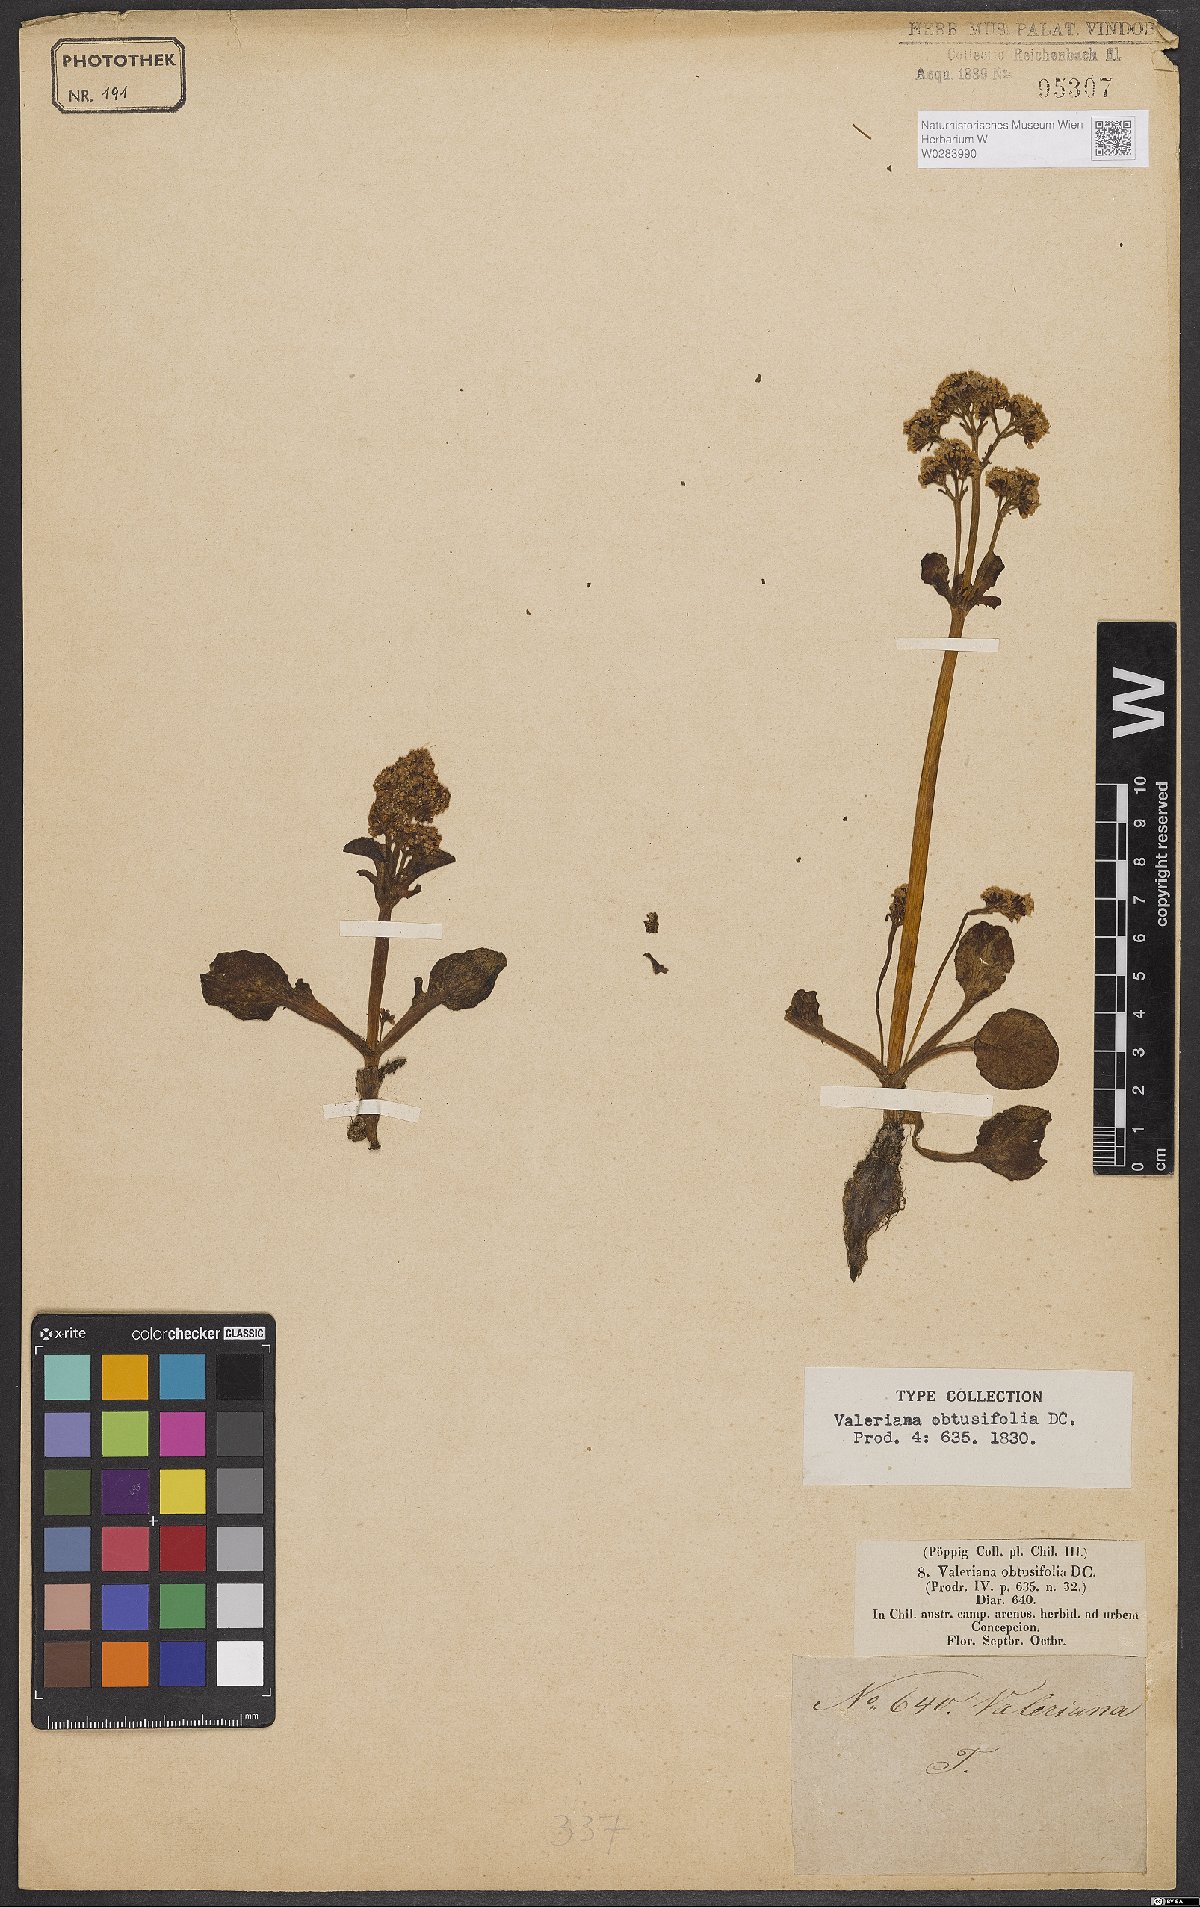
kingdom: Plantae
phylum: Tracheophyta
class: Magnoliopsida
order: Dipsacales
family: Caprifoliaceae
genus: Valeriana
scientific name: Valeriana obtusifolia
